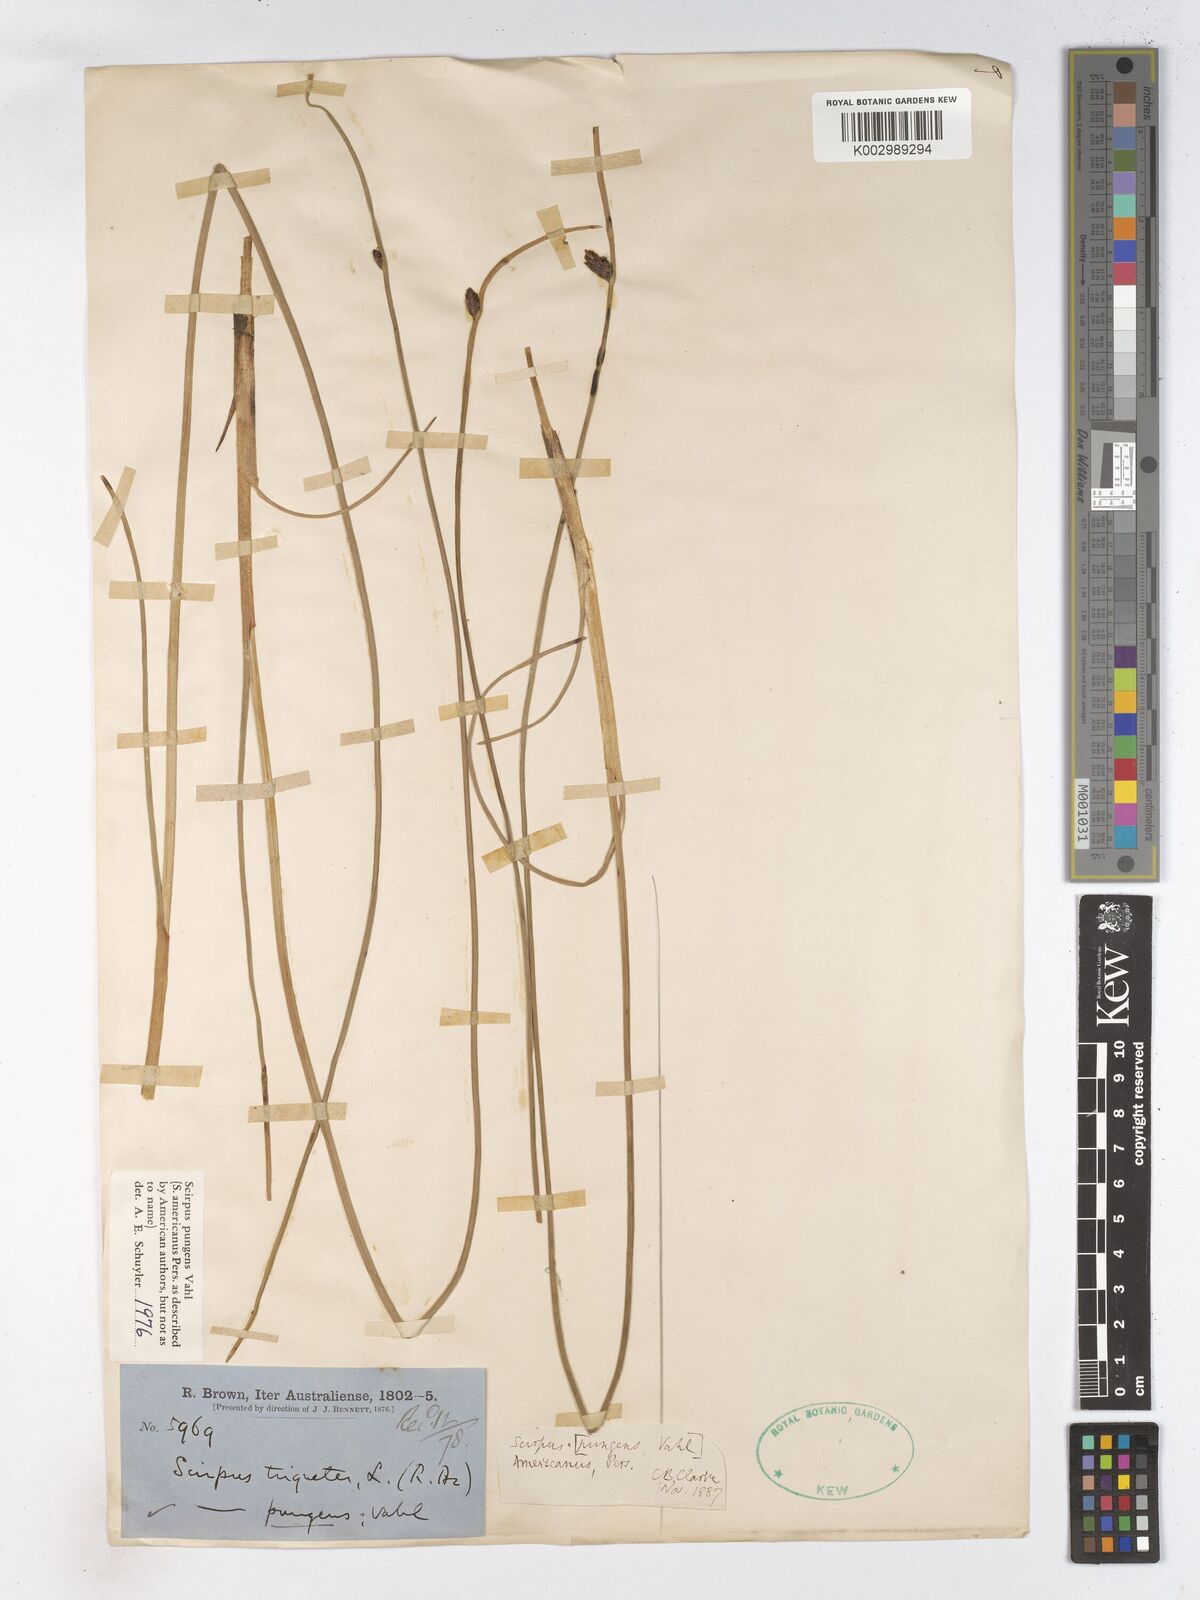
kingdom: Plantae
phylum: Tracheophyta
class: Liliopsida
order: Poales
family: Cyperaceae
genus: Schoenoplectus
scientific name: Schoenoplectus pungens
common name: Sharp club-rush
